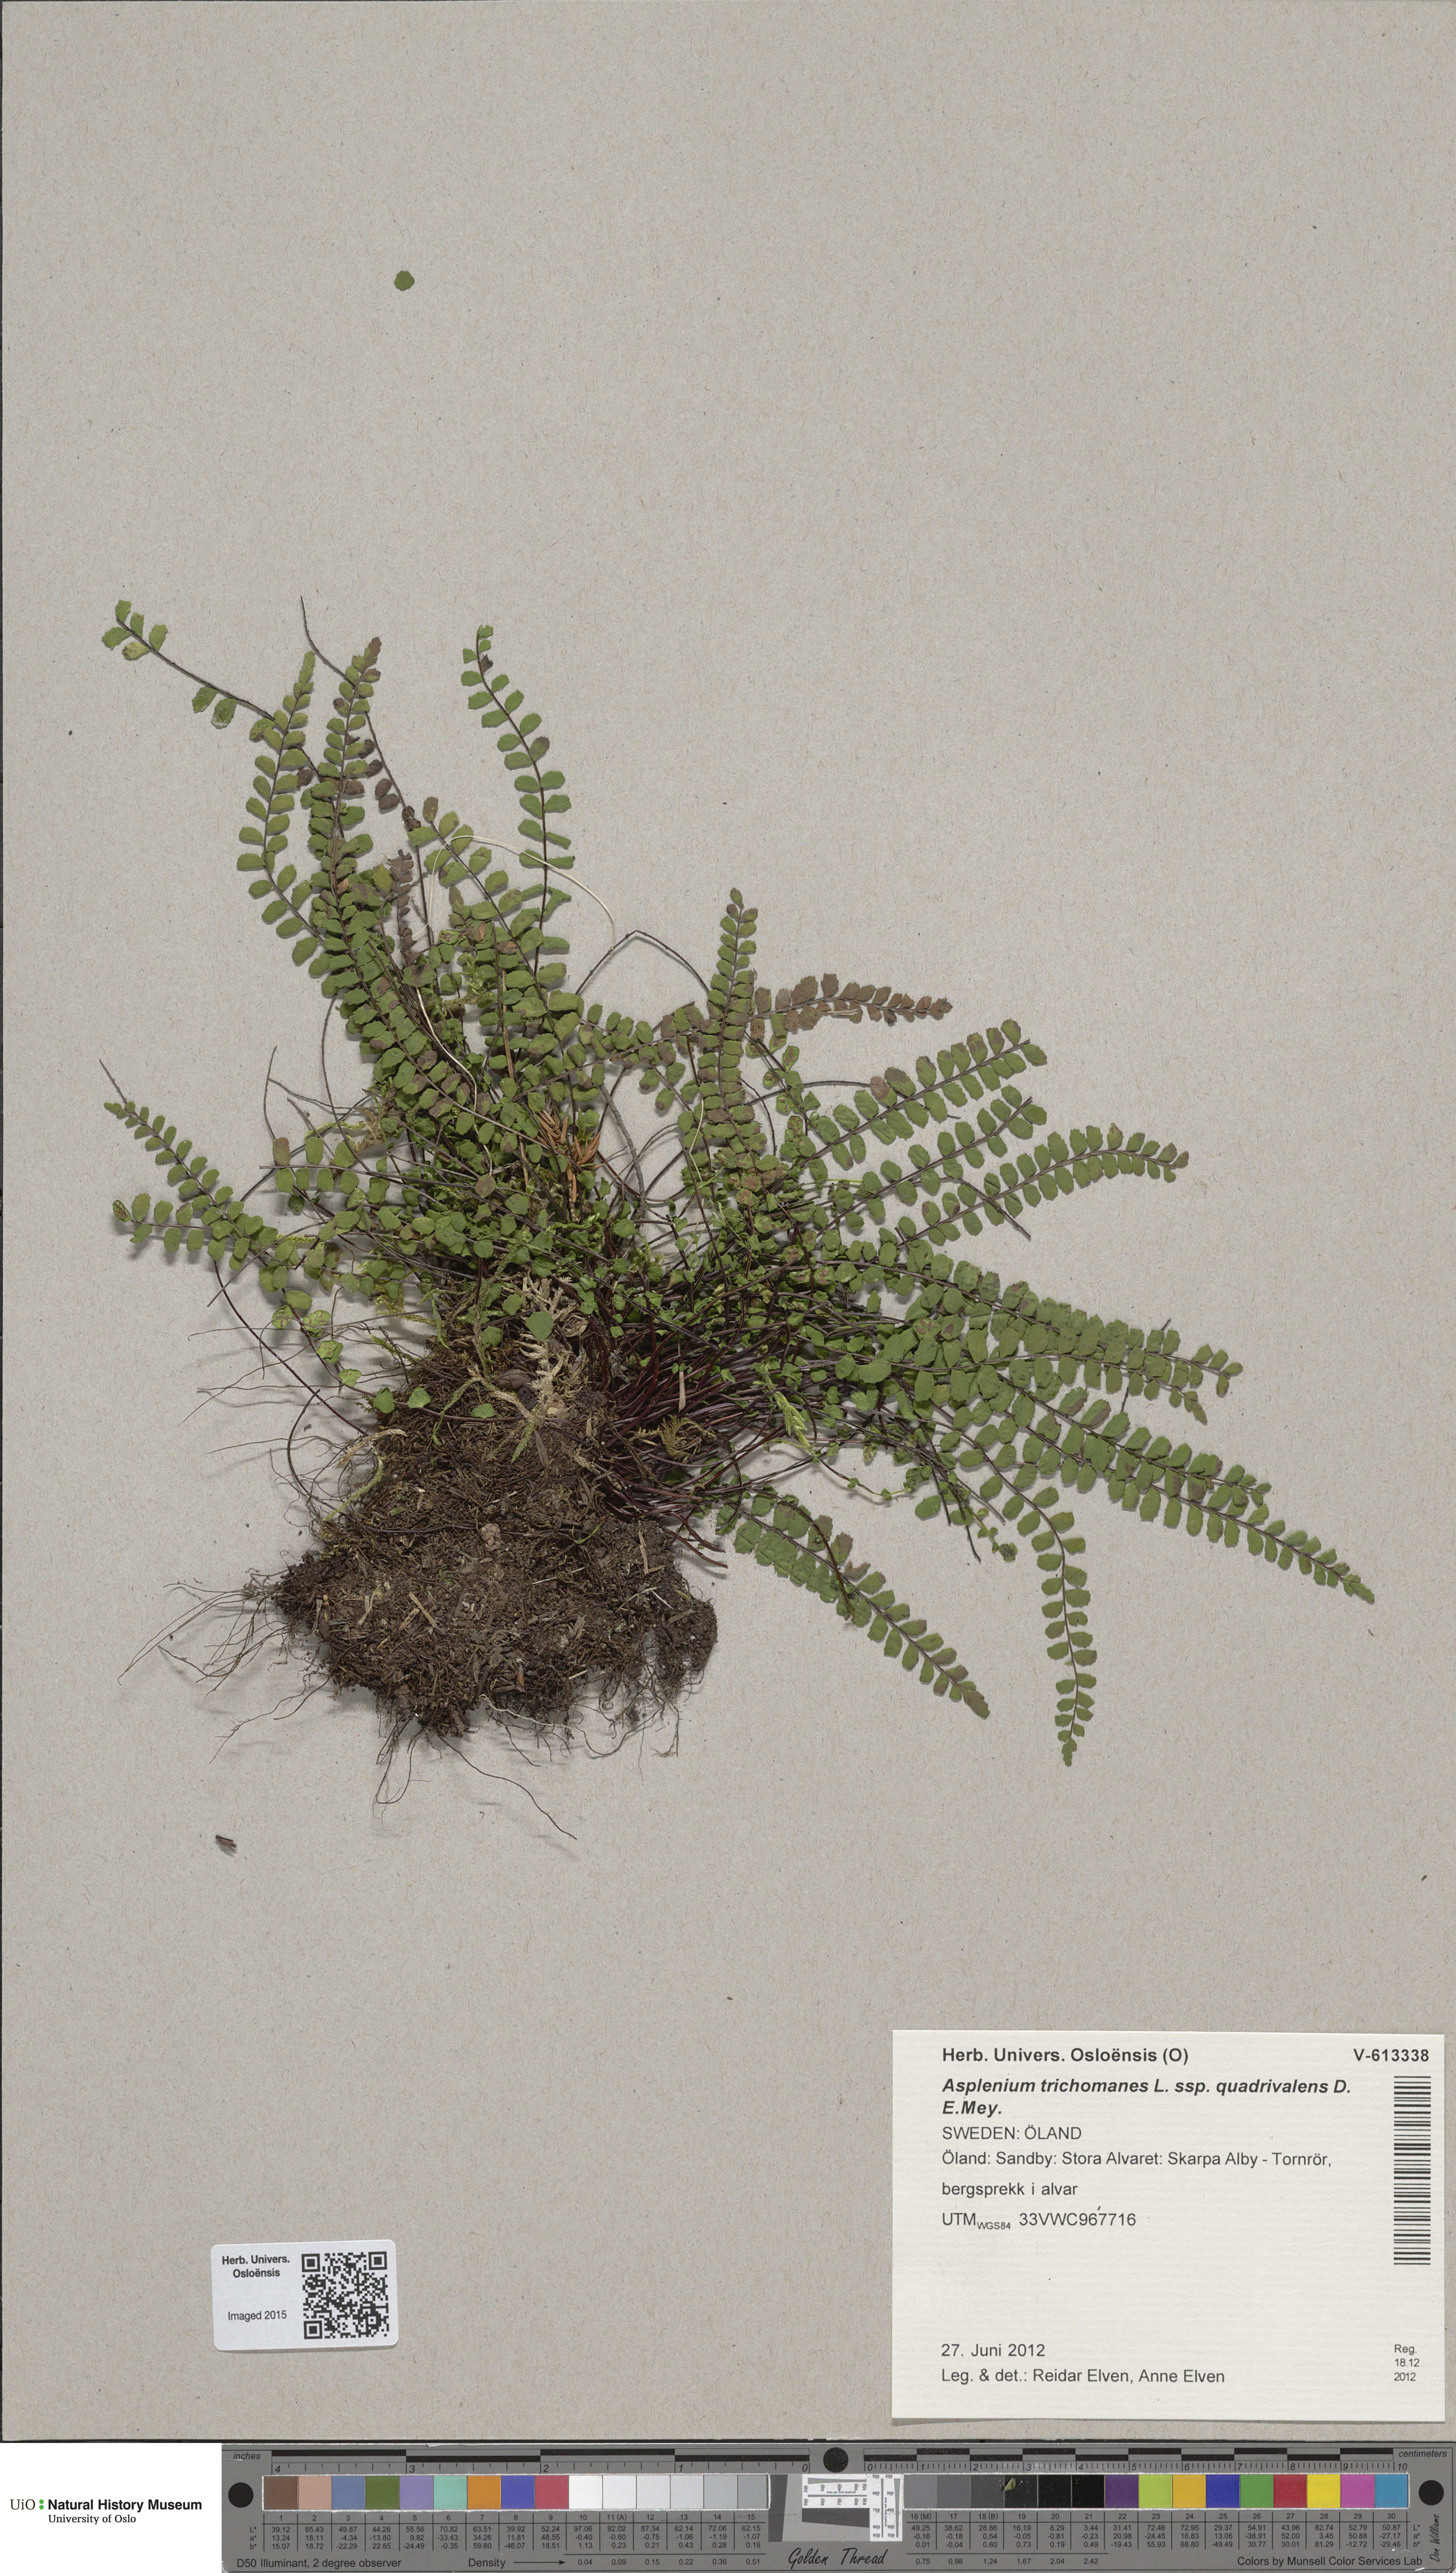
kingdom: Plantae
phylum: Tracheophyta
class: Polypodiopsida
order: Polypodiales
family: Aspleniaceae
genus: Asplenium
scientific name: Asplenium quadrivalens
